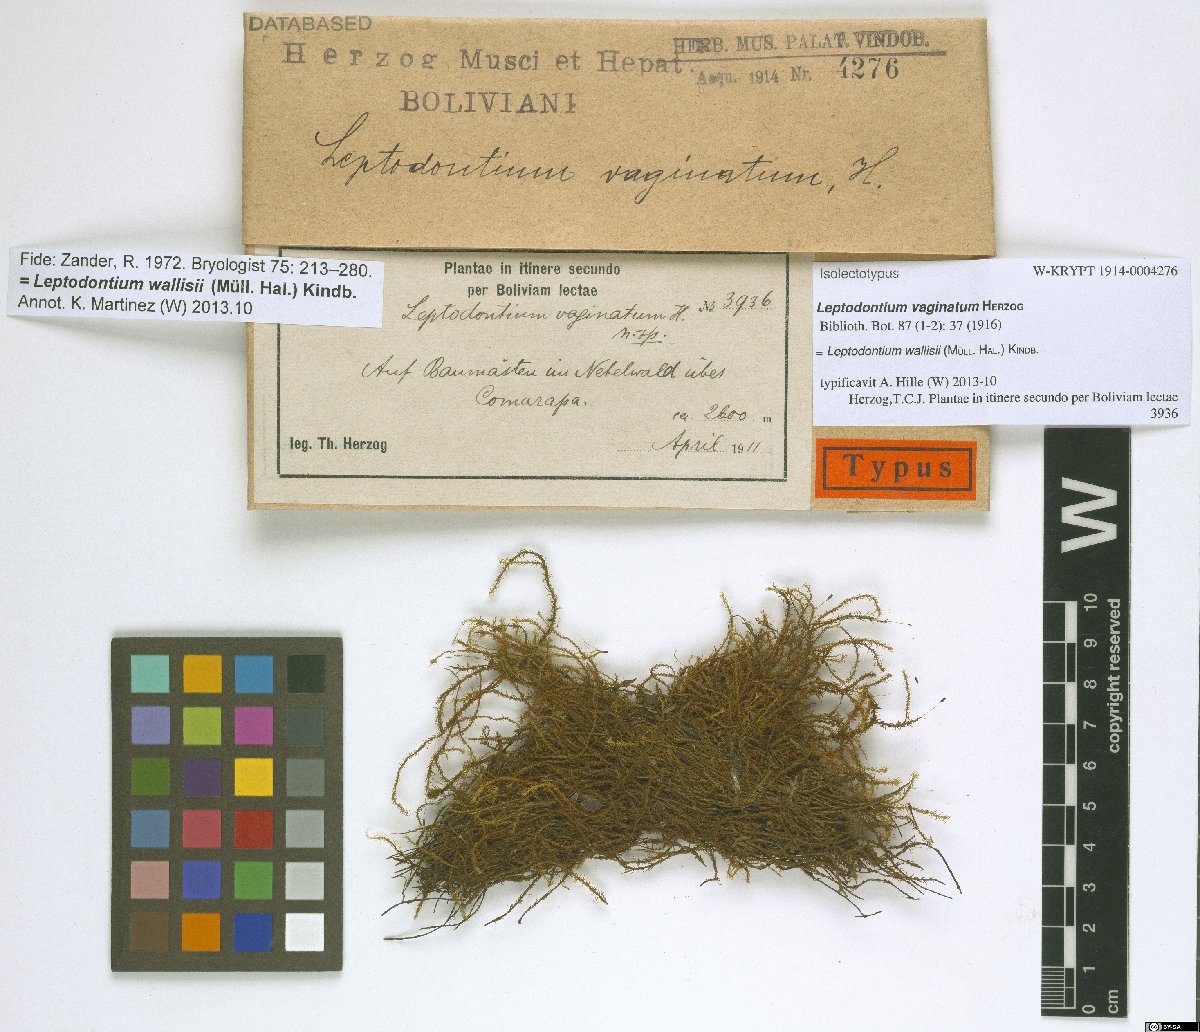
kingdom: Plantae
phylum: Bryophyta
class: Bryopsida
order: Pottiales
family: Pottiaceae
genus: Leptodontium
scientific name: Leptodontium wallisii
